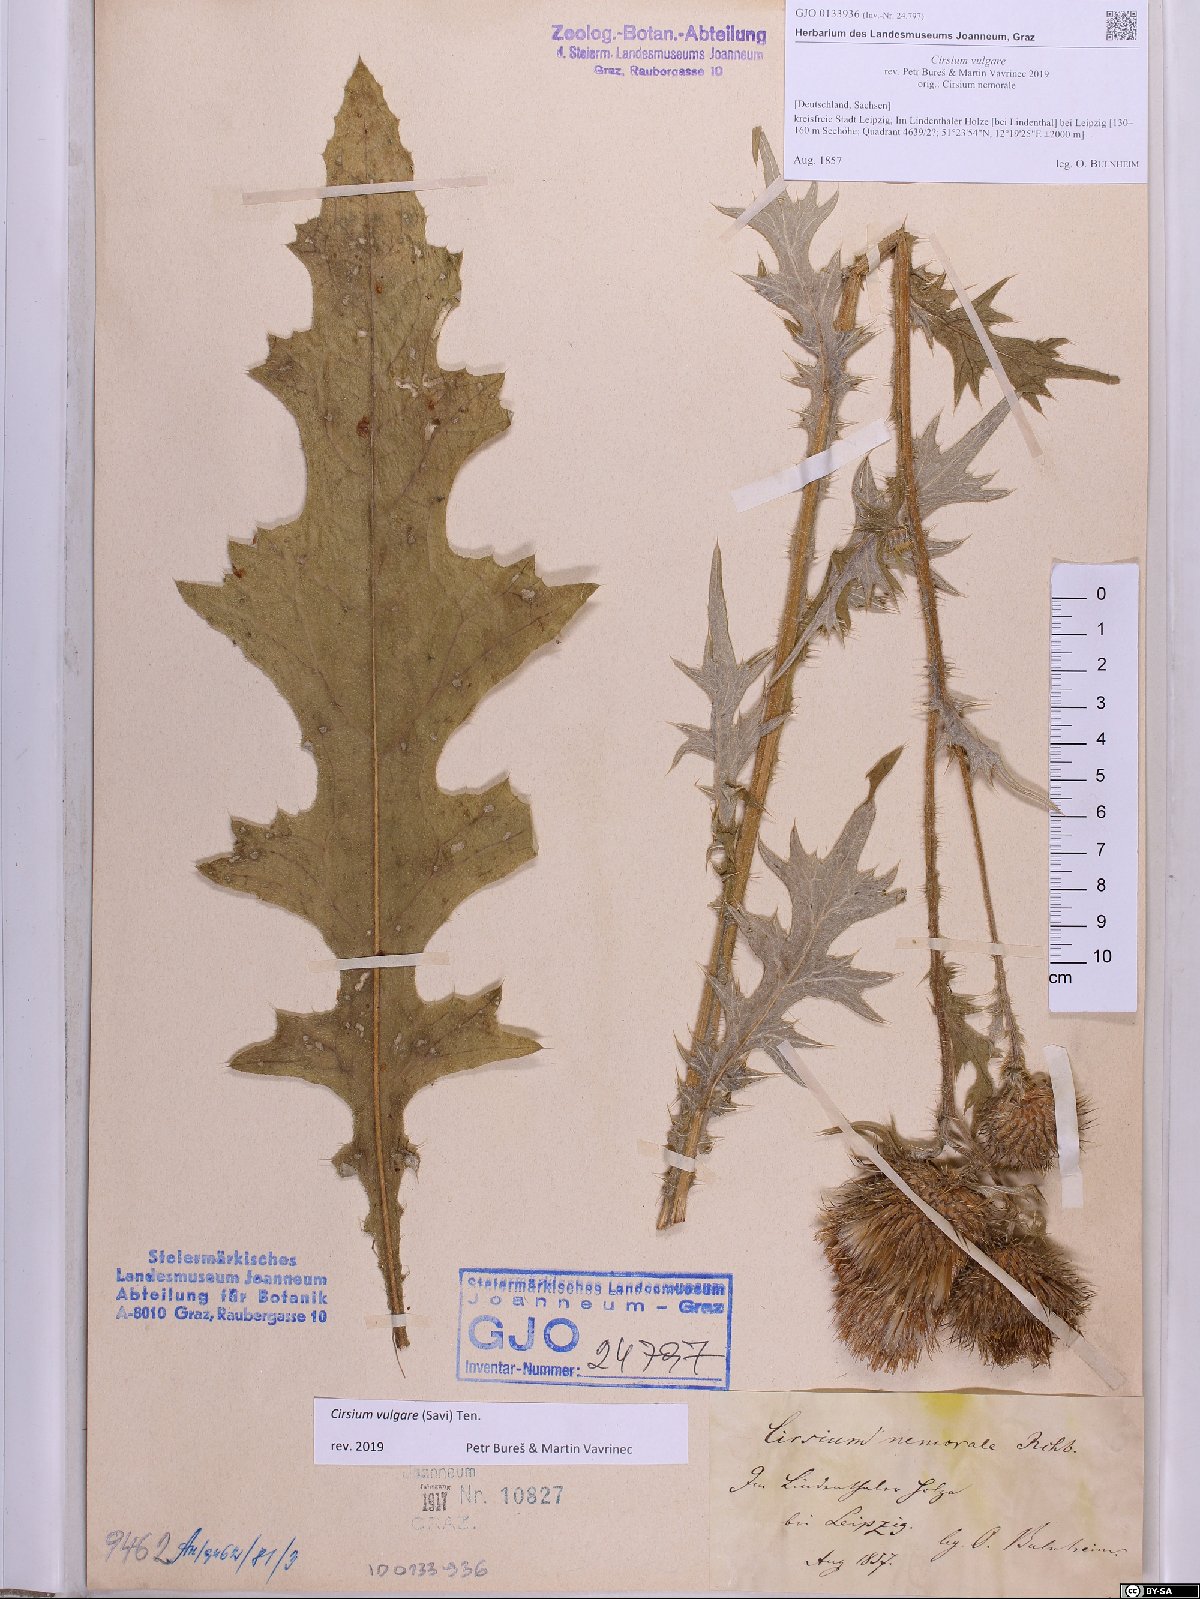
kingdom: Plantae
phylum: Tracheophyta
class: Magnoliopsida
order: Asterales
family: Asteraceae
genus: Cirsium
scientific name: Cirsium vulgare
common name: Bull thistle
